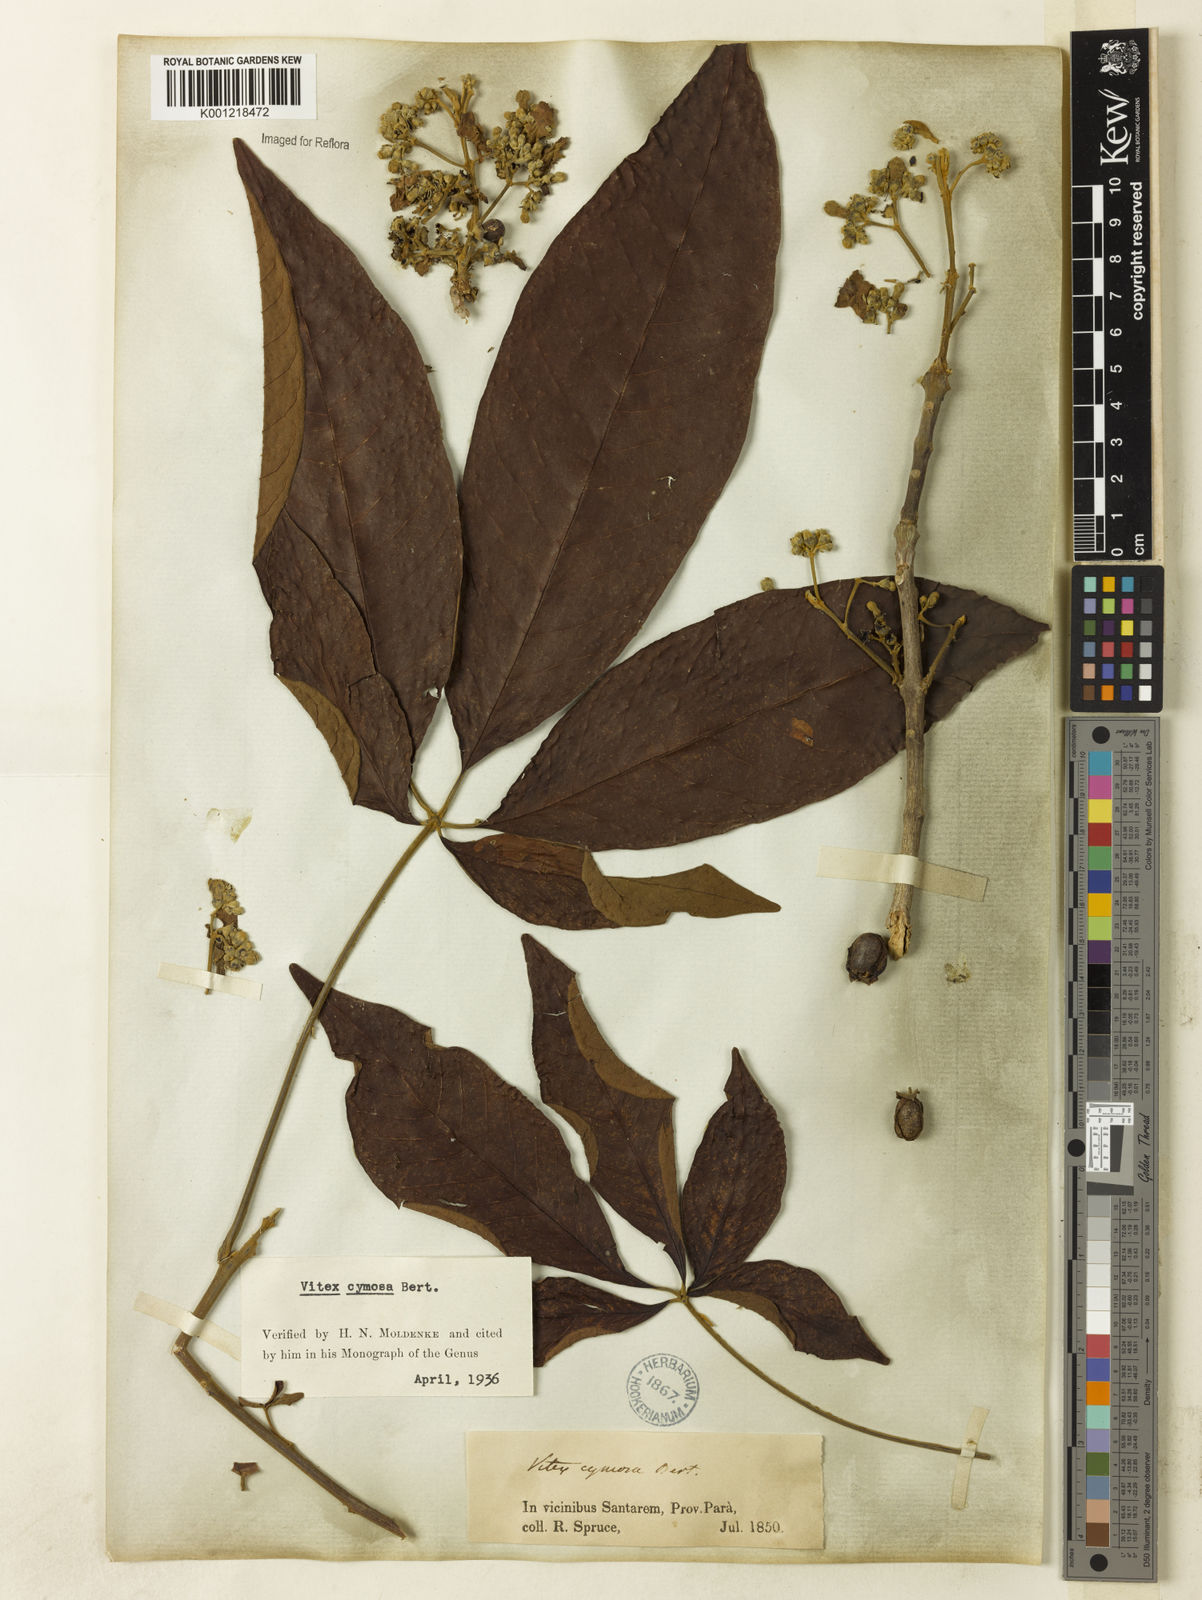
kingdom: Plantae
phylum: Tracheophyta
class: Magnoliopsida
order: Lamiales
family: Lamiaceae
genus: Vitex
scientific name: Vitex cymosa
